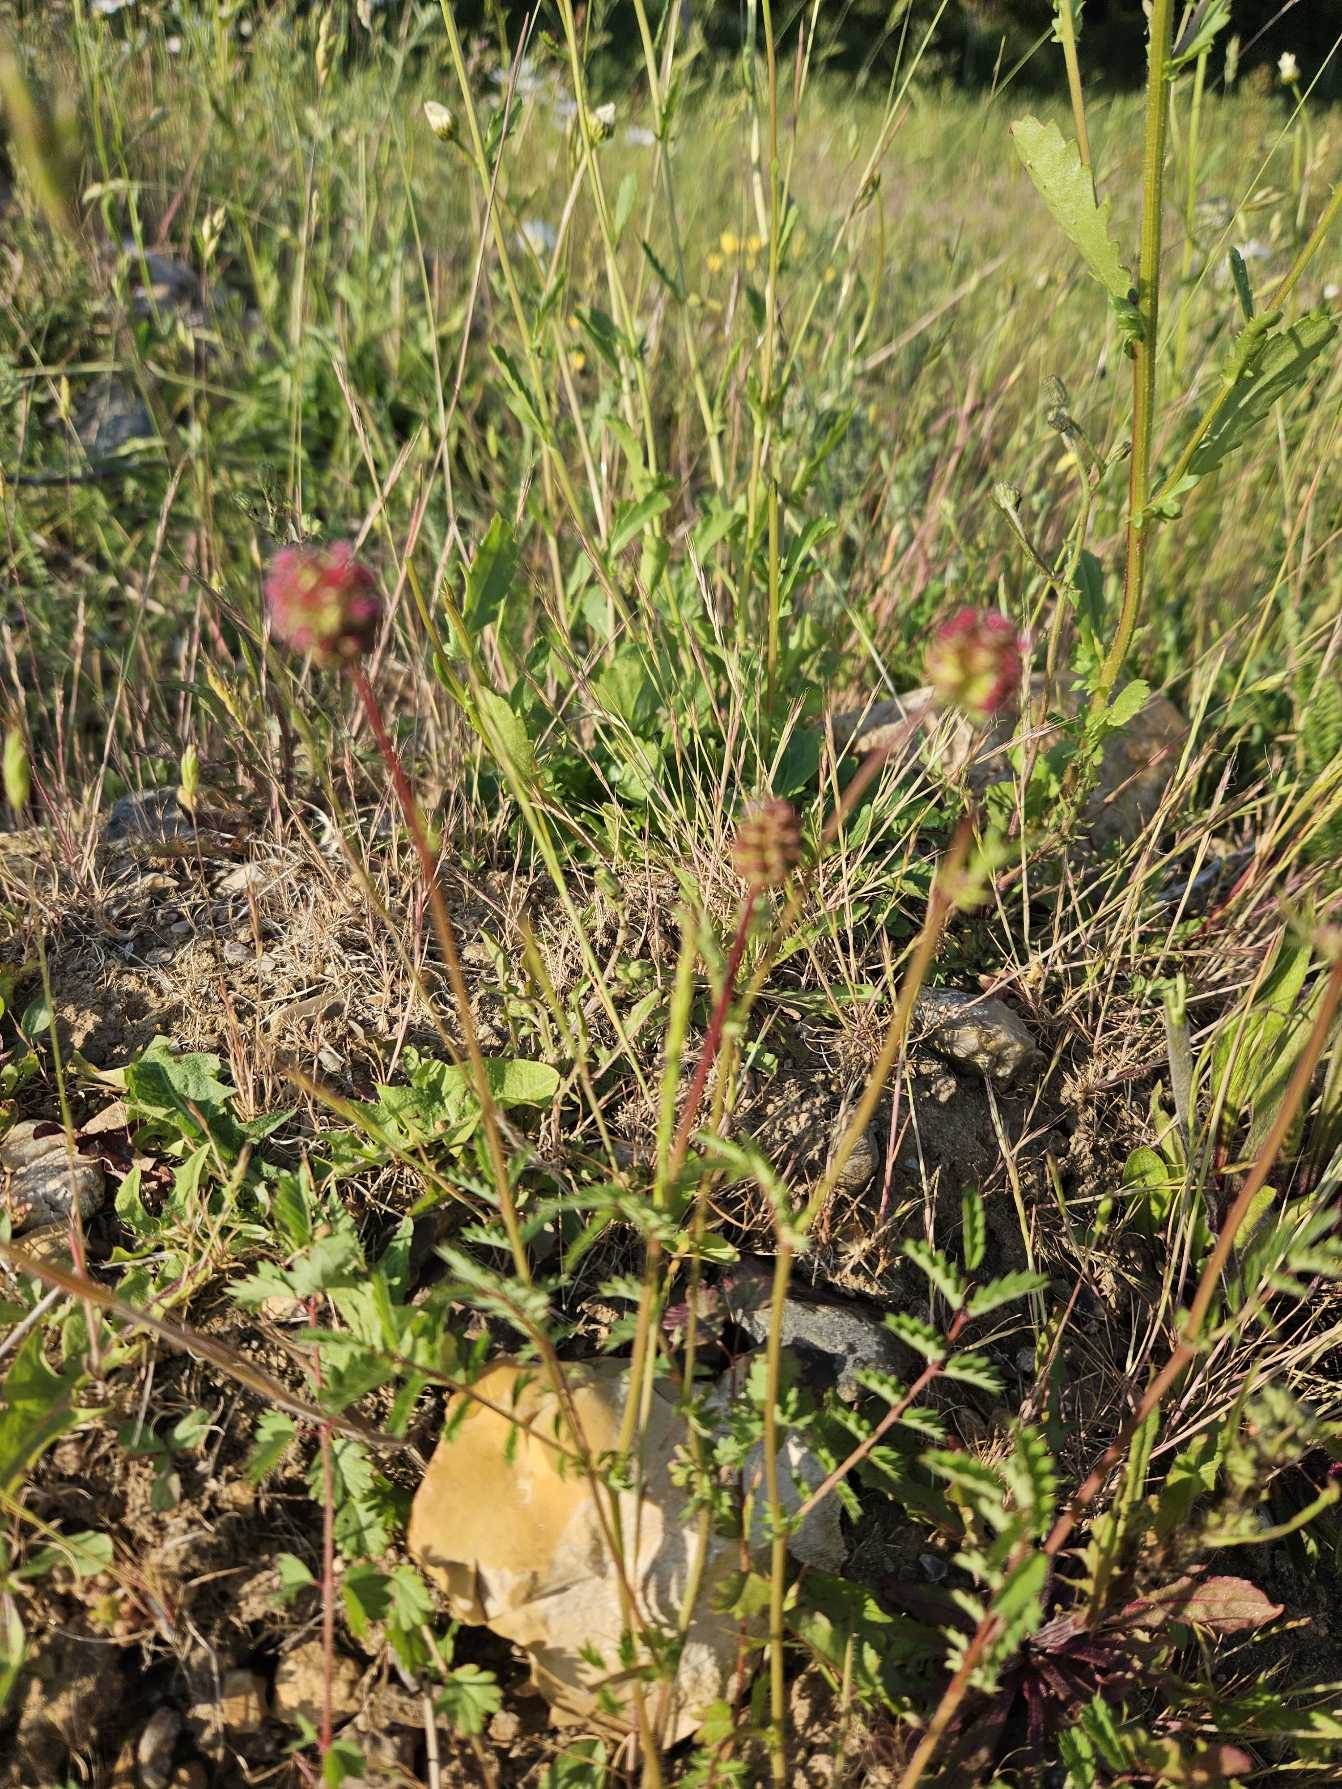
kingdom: Plantae
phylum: Tracheophyta
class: Magnoliopsida
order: Rosales
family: Rosaceae
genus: Poterium
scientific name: Poterium sanguisorba
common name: Bibernelle
